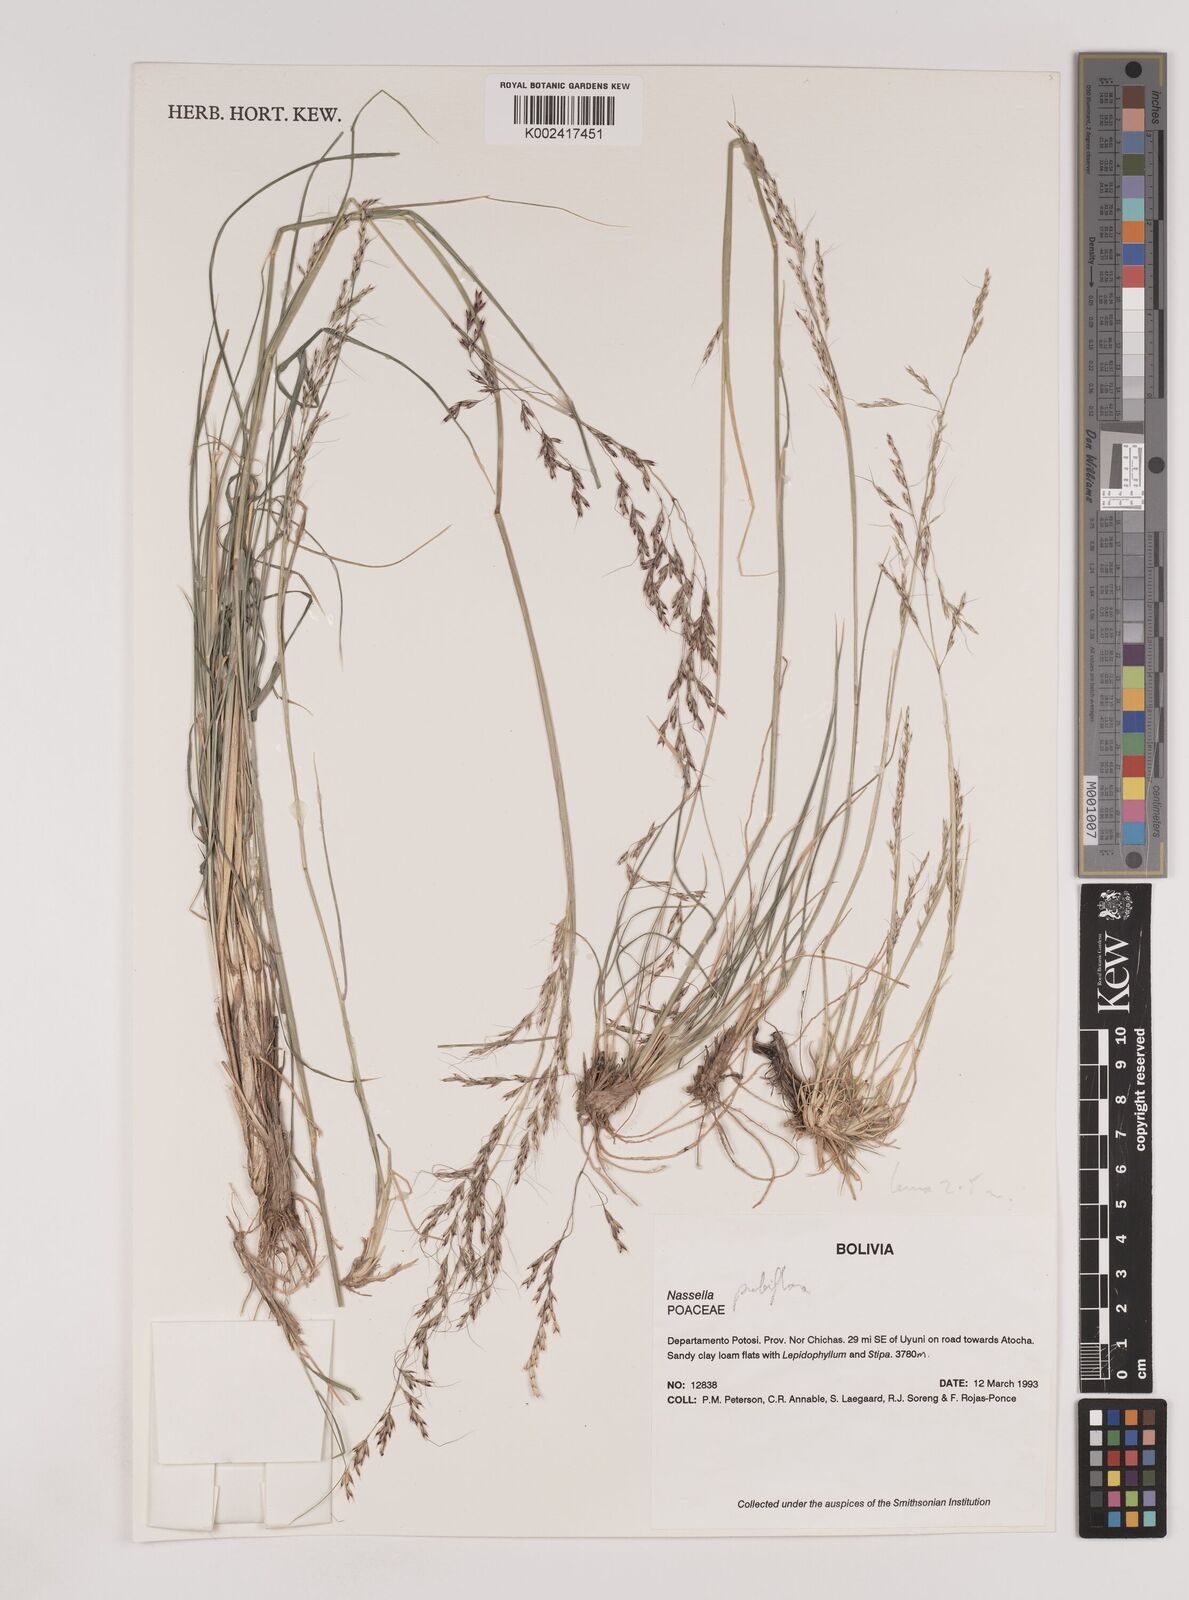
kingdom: Plantae
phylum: Tracheophyta
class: Liliopsida
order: Poales
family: Poaceae
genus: Nassella
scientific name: Nassella caespitosa
